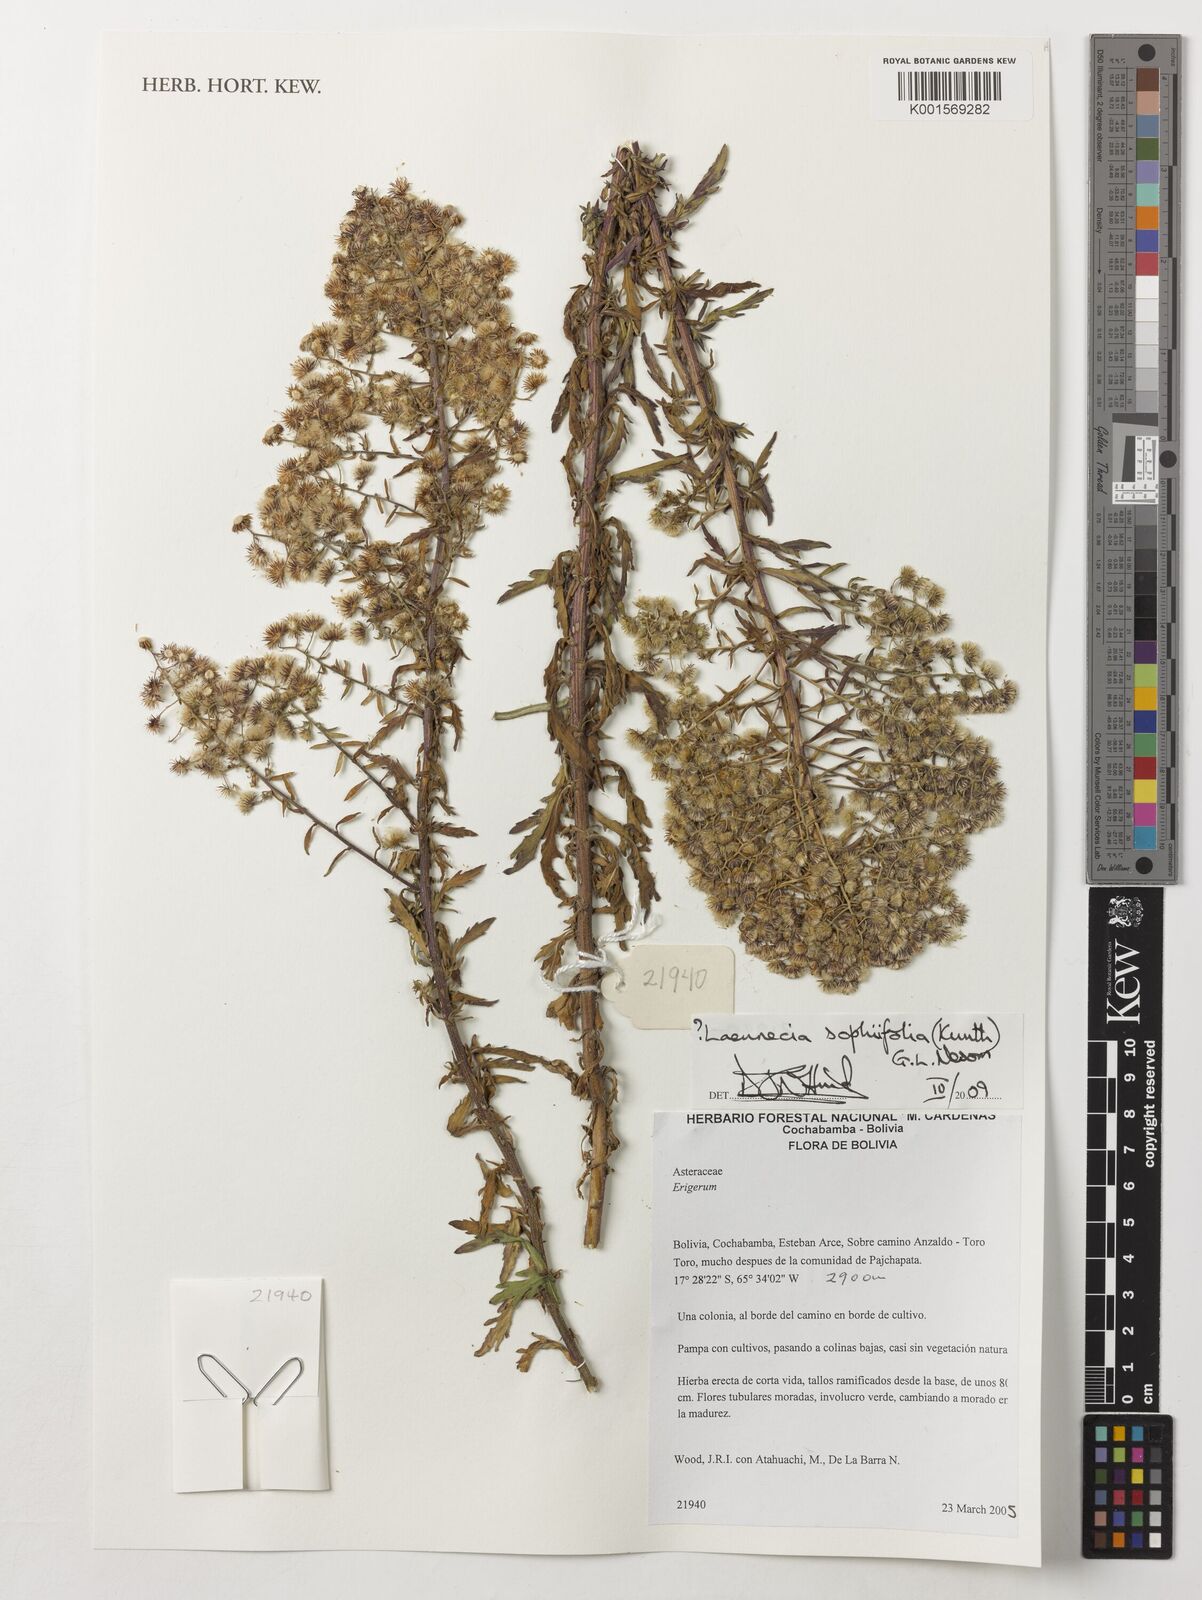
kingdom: Plantae
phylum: Tracheophyta
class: Magnoliopsida
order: Asterales
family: Asteraceae
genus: Laennecia
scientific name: Laennecia sophiifolia
